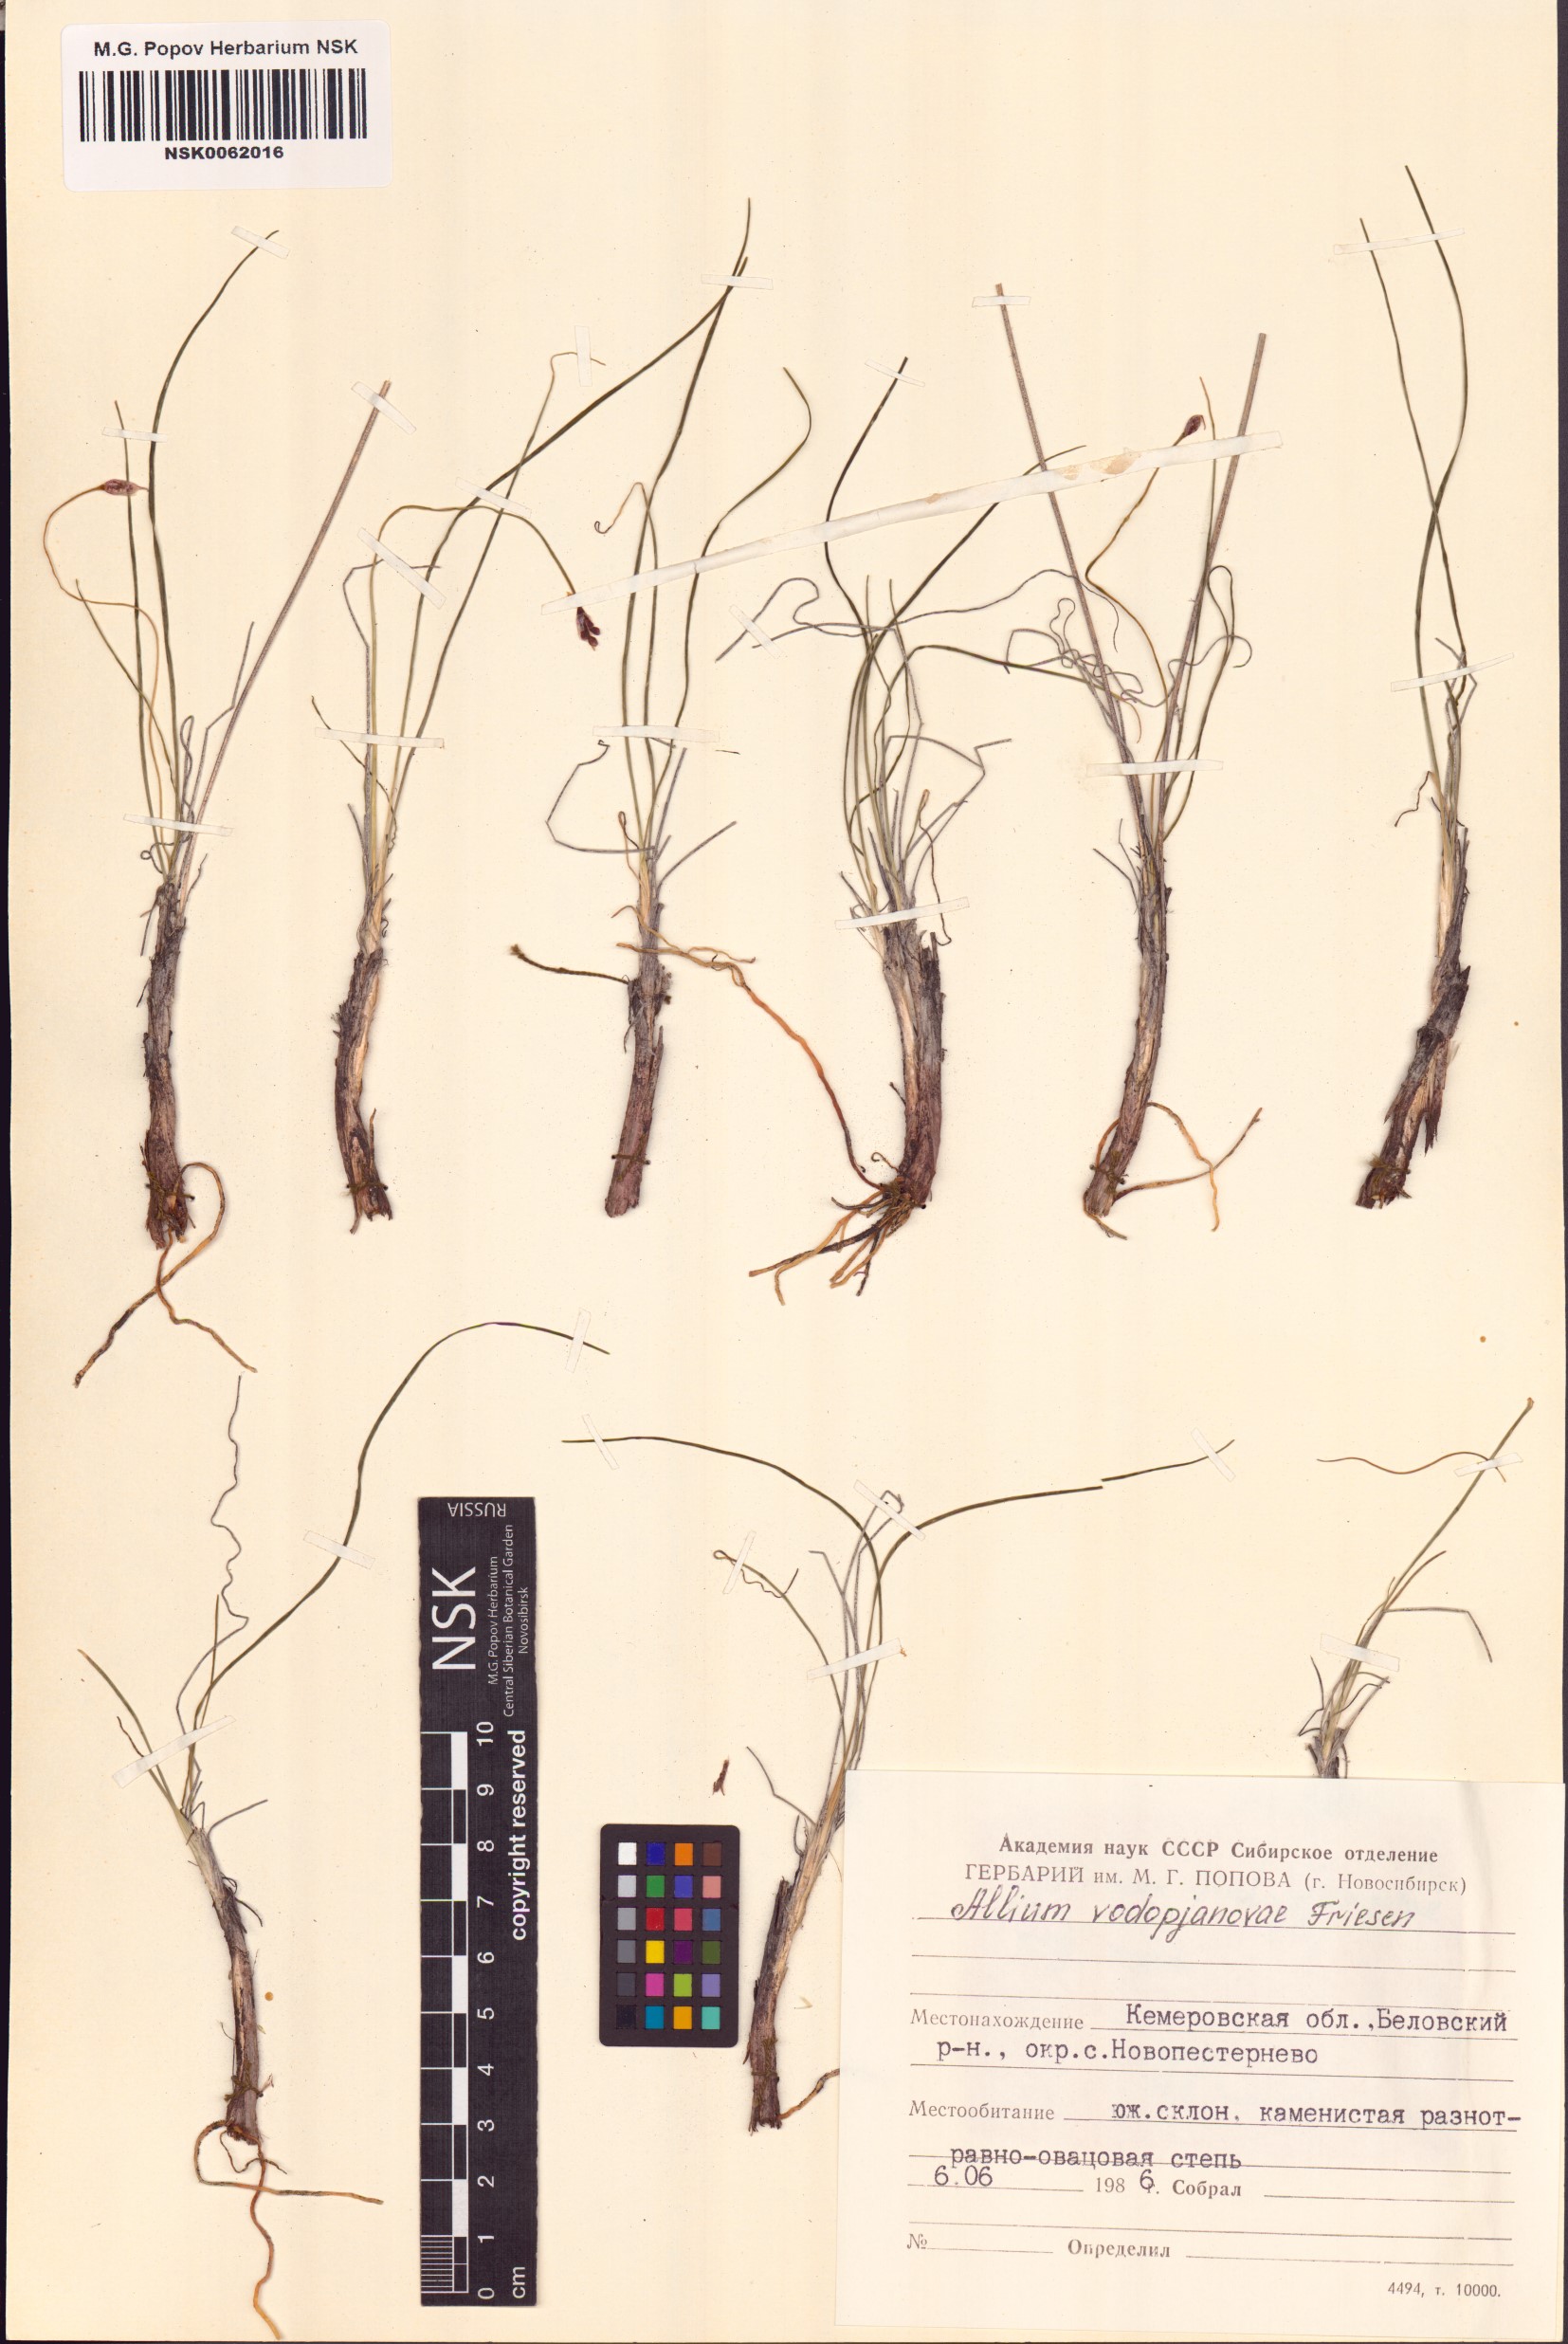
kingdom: Plantae
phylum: Tracheophyta
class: Liliopsida
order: Asparagales
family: Amaryllidaceae
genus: Allium
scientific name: Allium vodopjanovae
